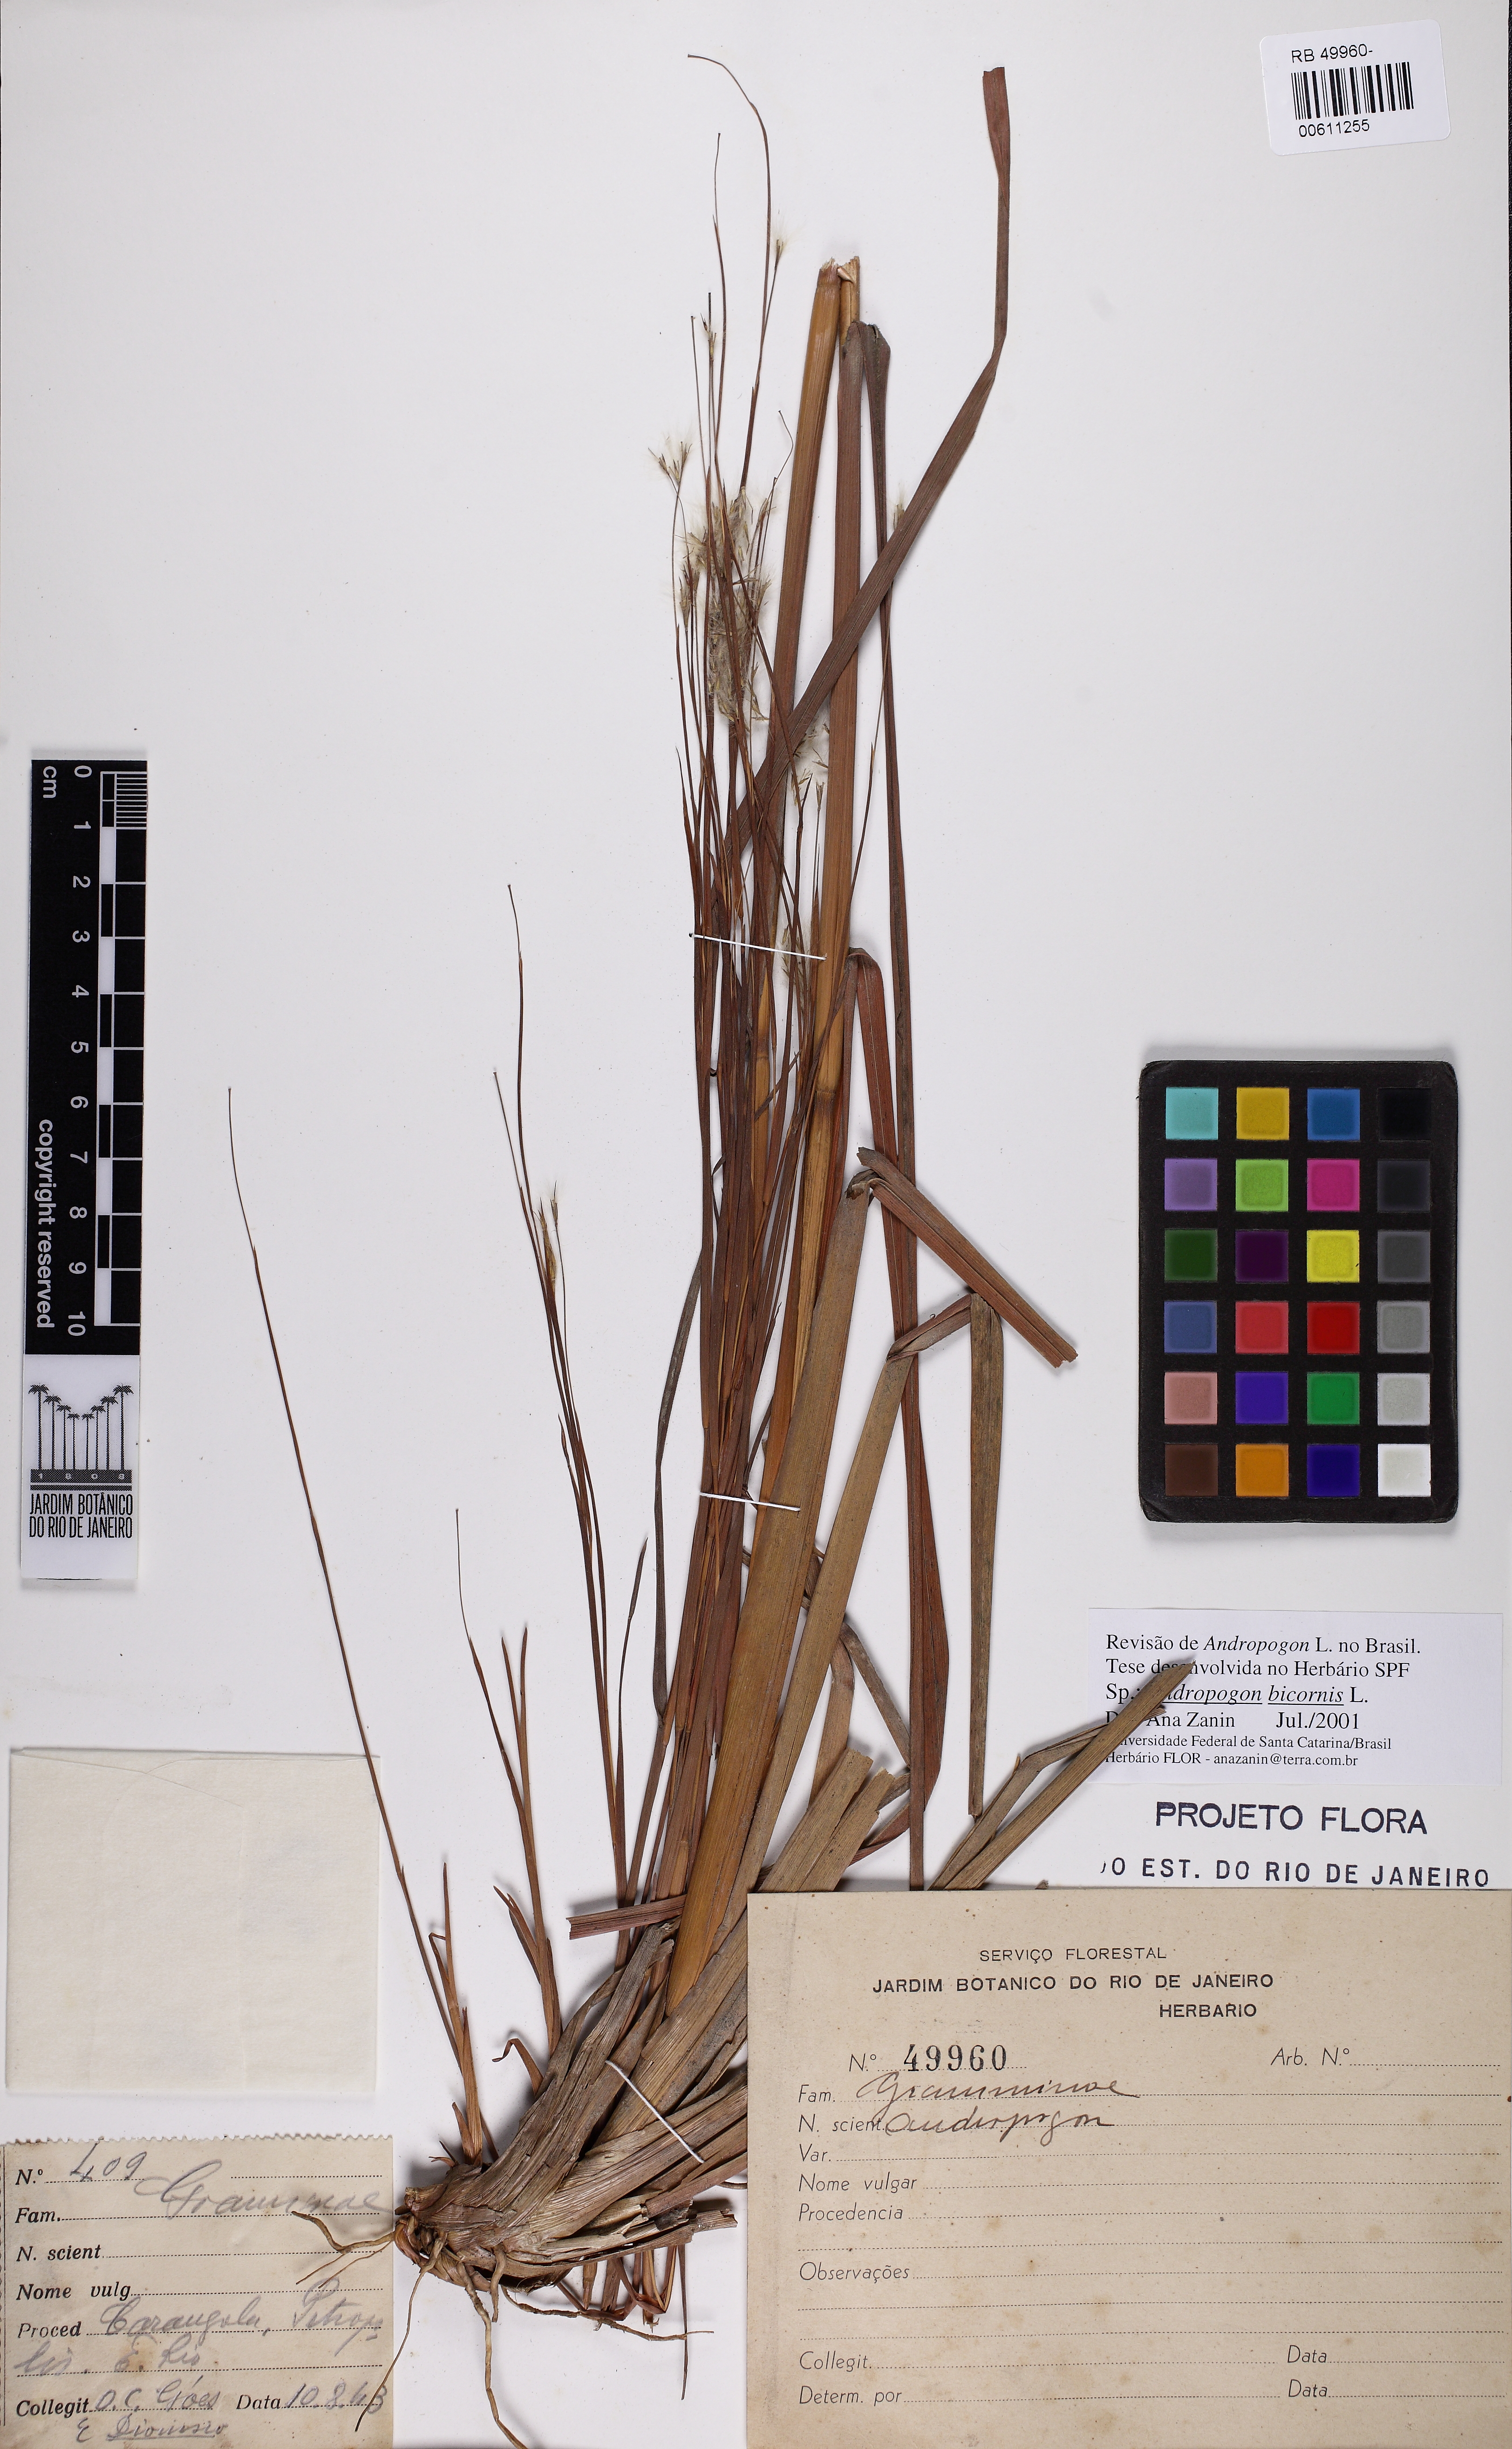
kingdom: Plantae
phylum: Tracheophyta
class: Liliopsida
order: Poales
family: Poaceae
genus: Andropogon
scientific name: Andropogon bicornis
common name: West indian foxtail grass
